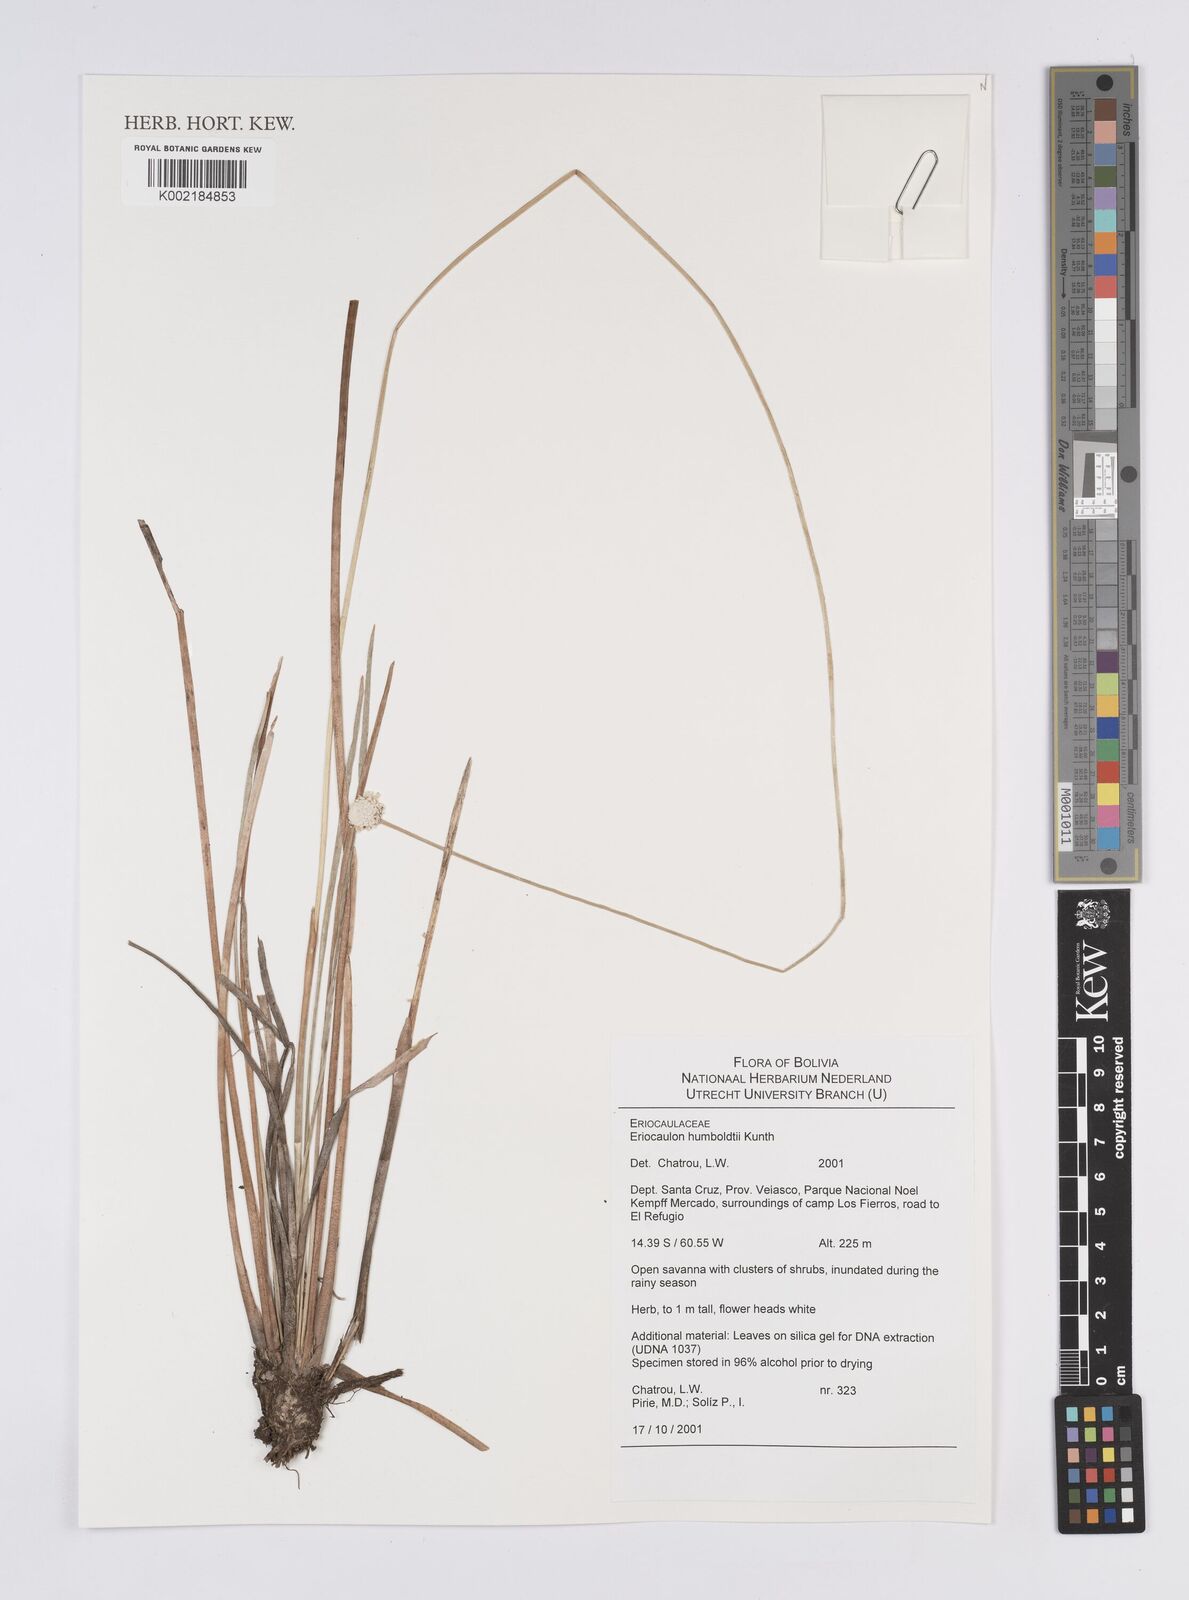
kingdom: Plantae
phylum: Tracheophyta
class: Liliopsida
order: Poales
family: Eriocaulaceae
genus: Eriocaulon
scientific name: Eriocaulon humboldtii
